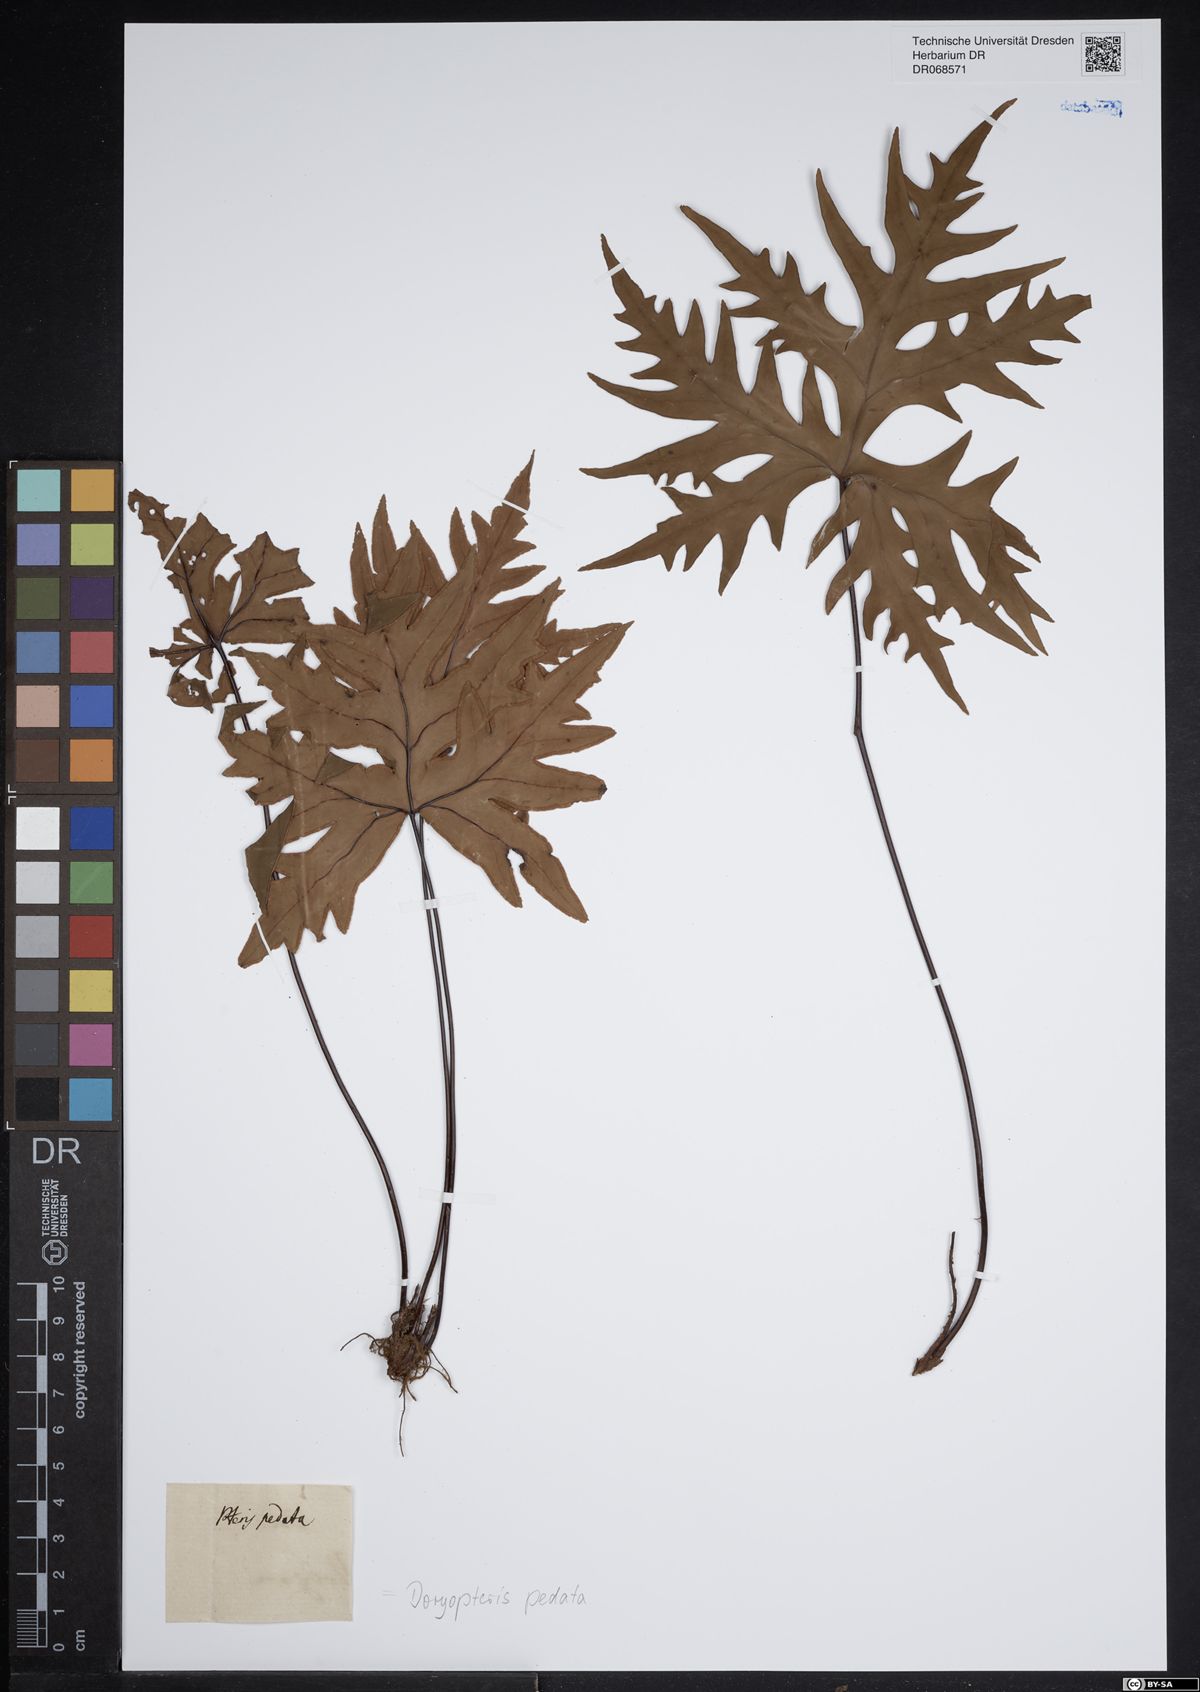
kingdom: Plantae
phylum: Tracheophyta
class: Polypodiopsida
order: Polypodiales
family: Pteridaceae
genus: Doryopteris
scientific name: Doryopteris pedata
